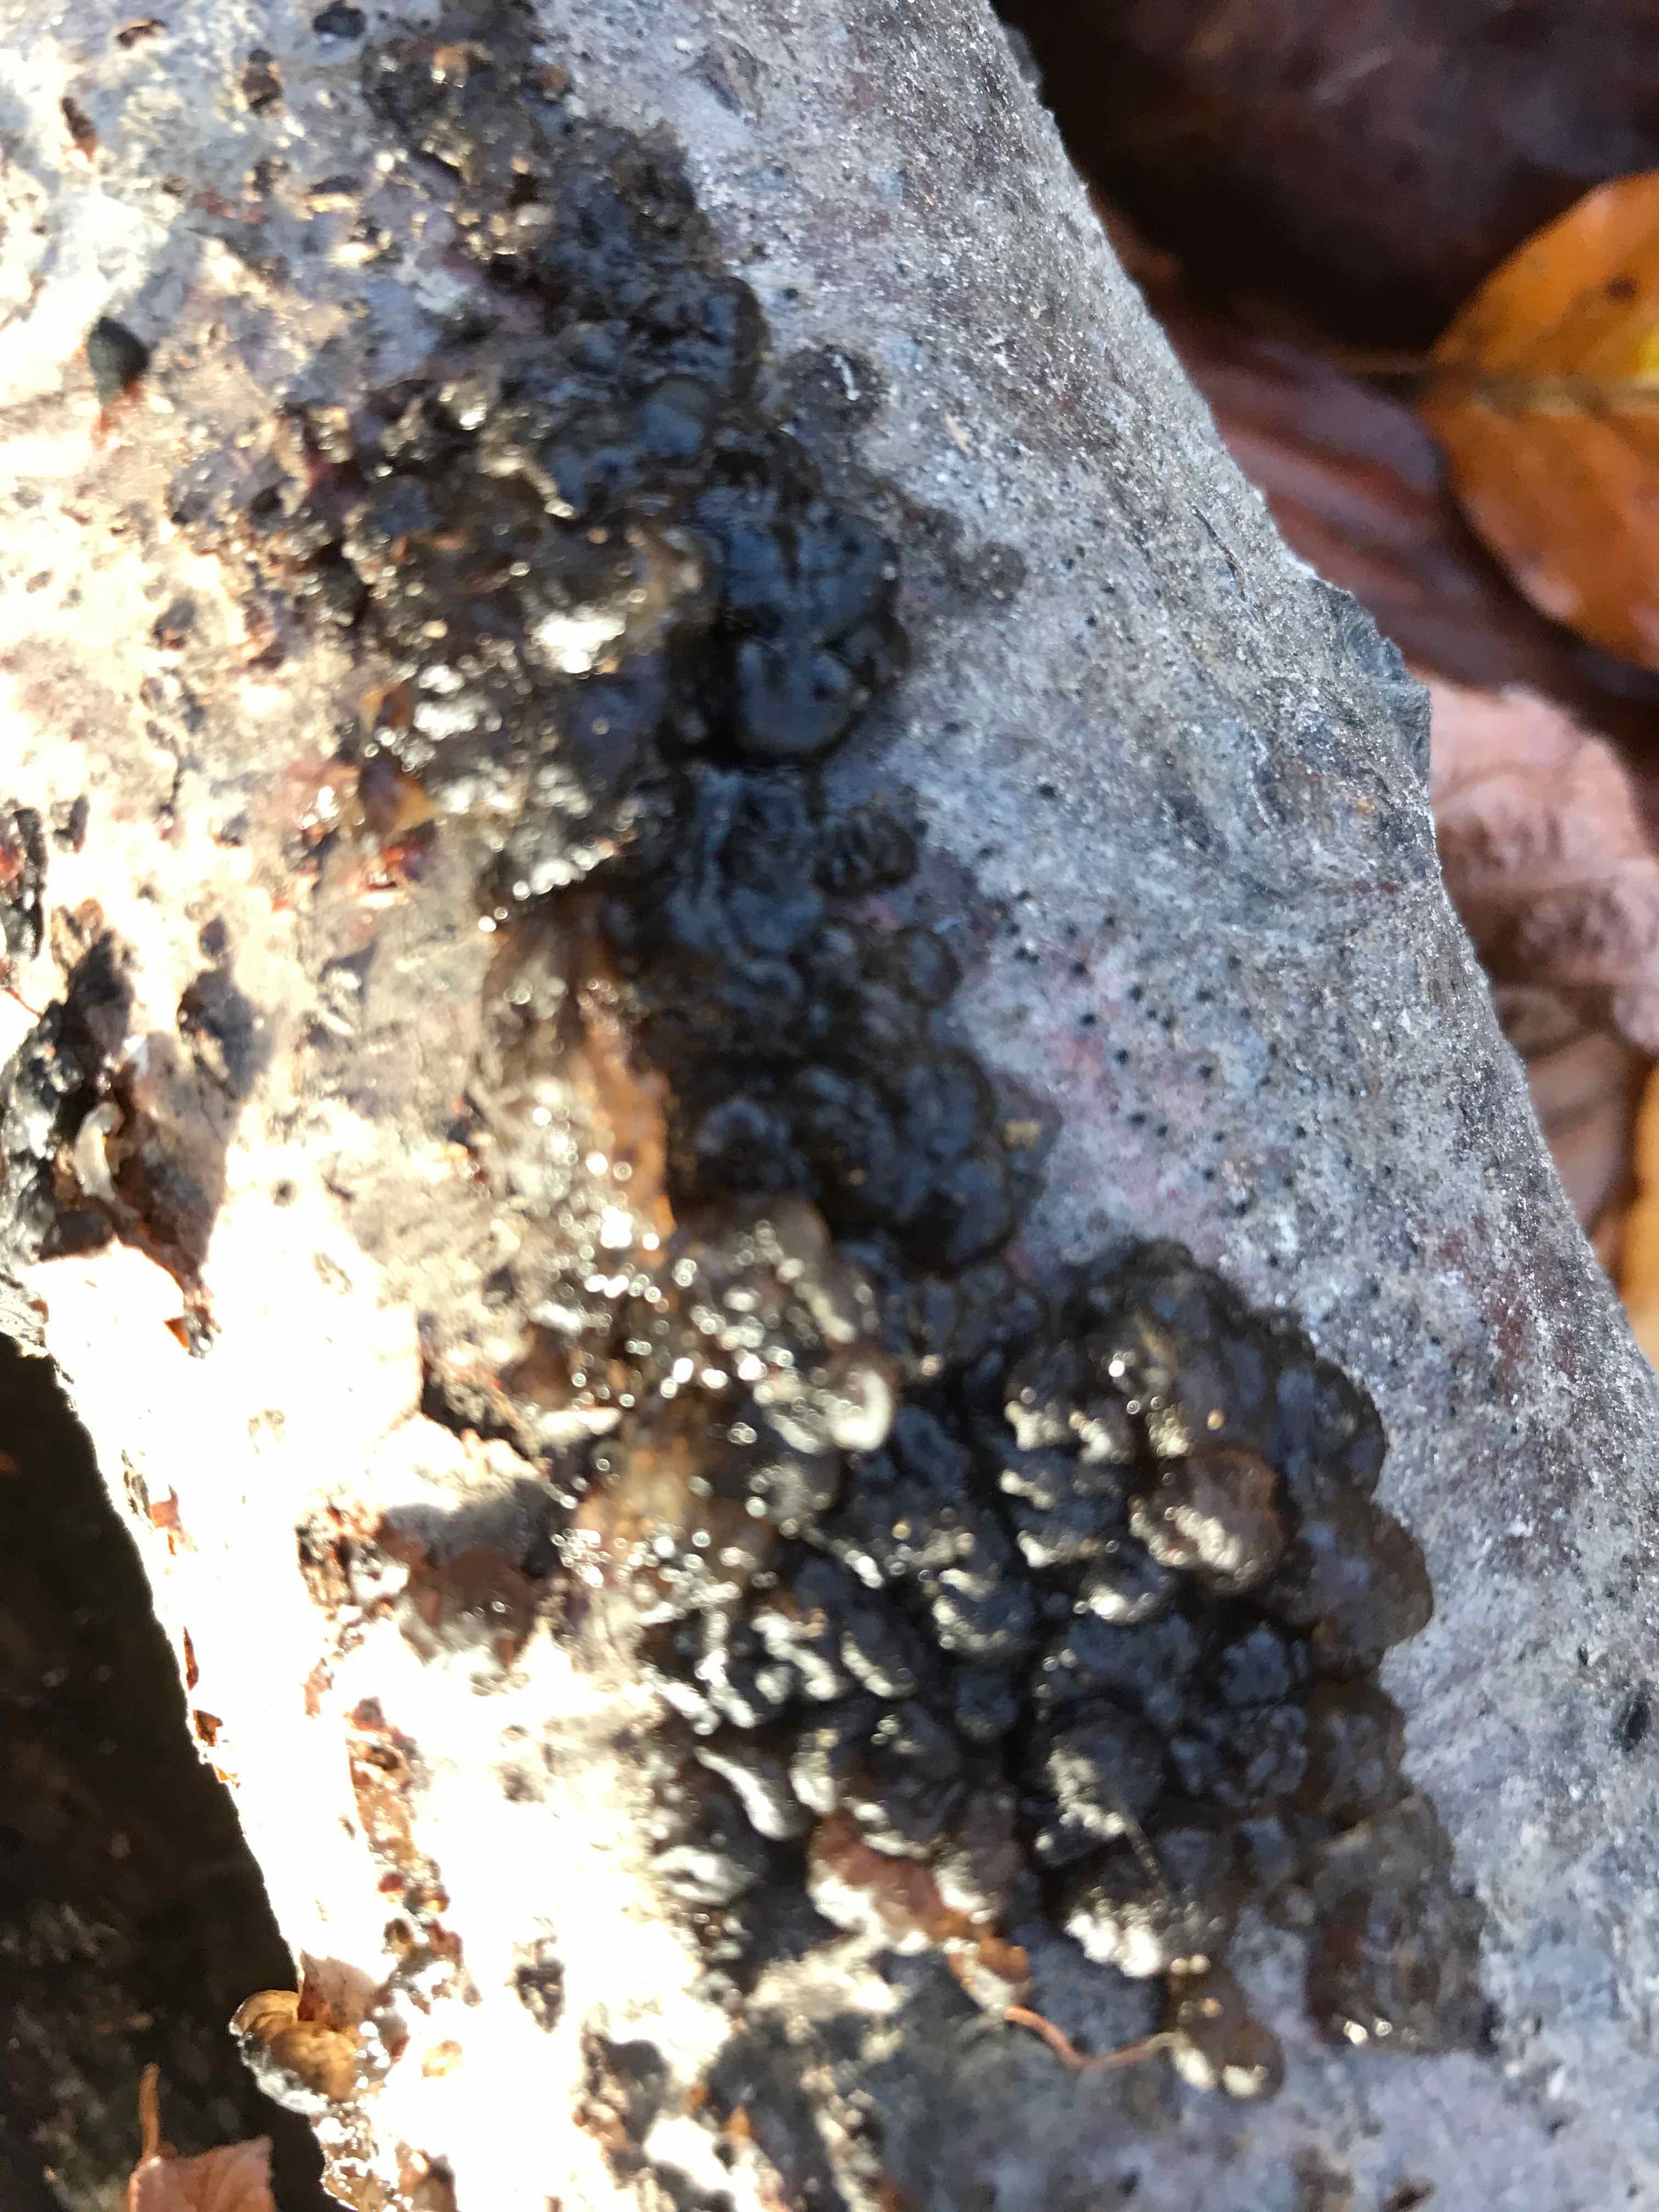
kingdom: Fungi
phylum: Basidiomycota
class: Agaricomycetes
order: Auriculariales
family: Auriculariaceae
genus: Exidia
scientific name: Exidia nigricans
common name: almindelig bævretop
